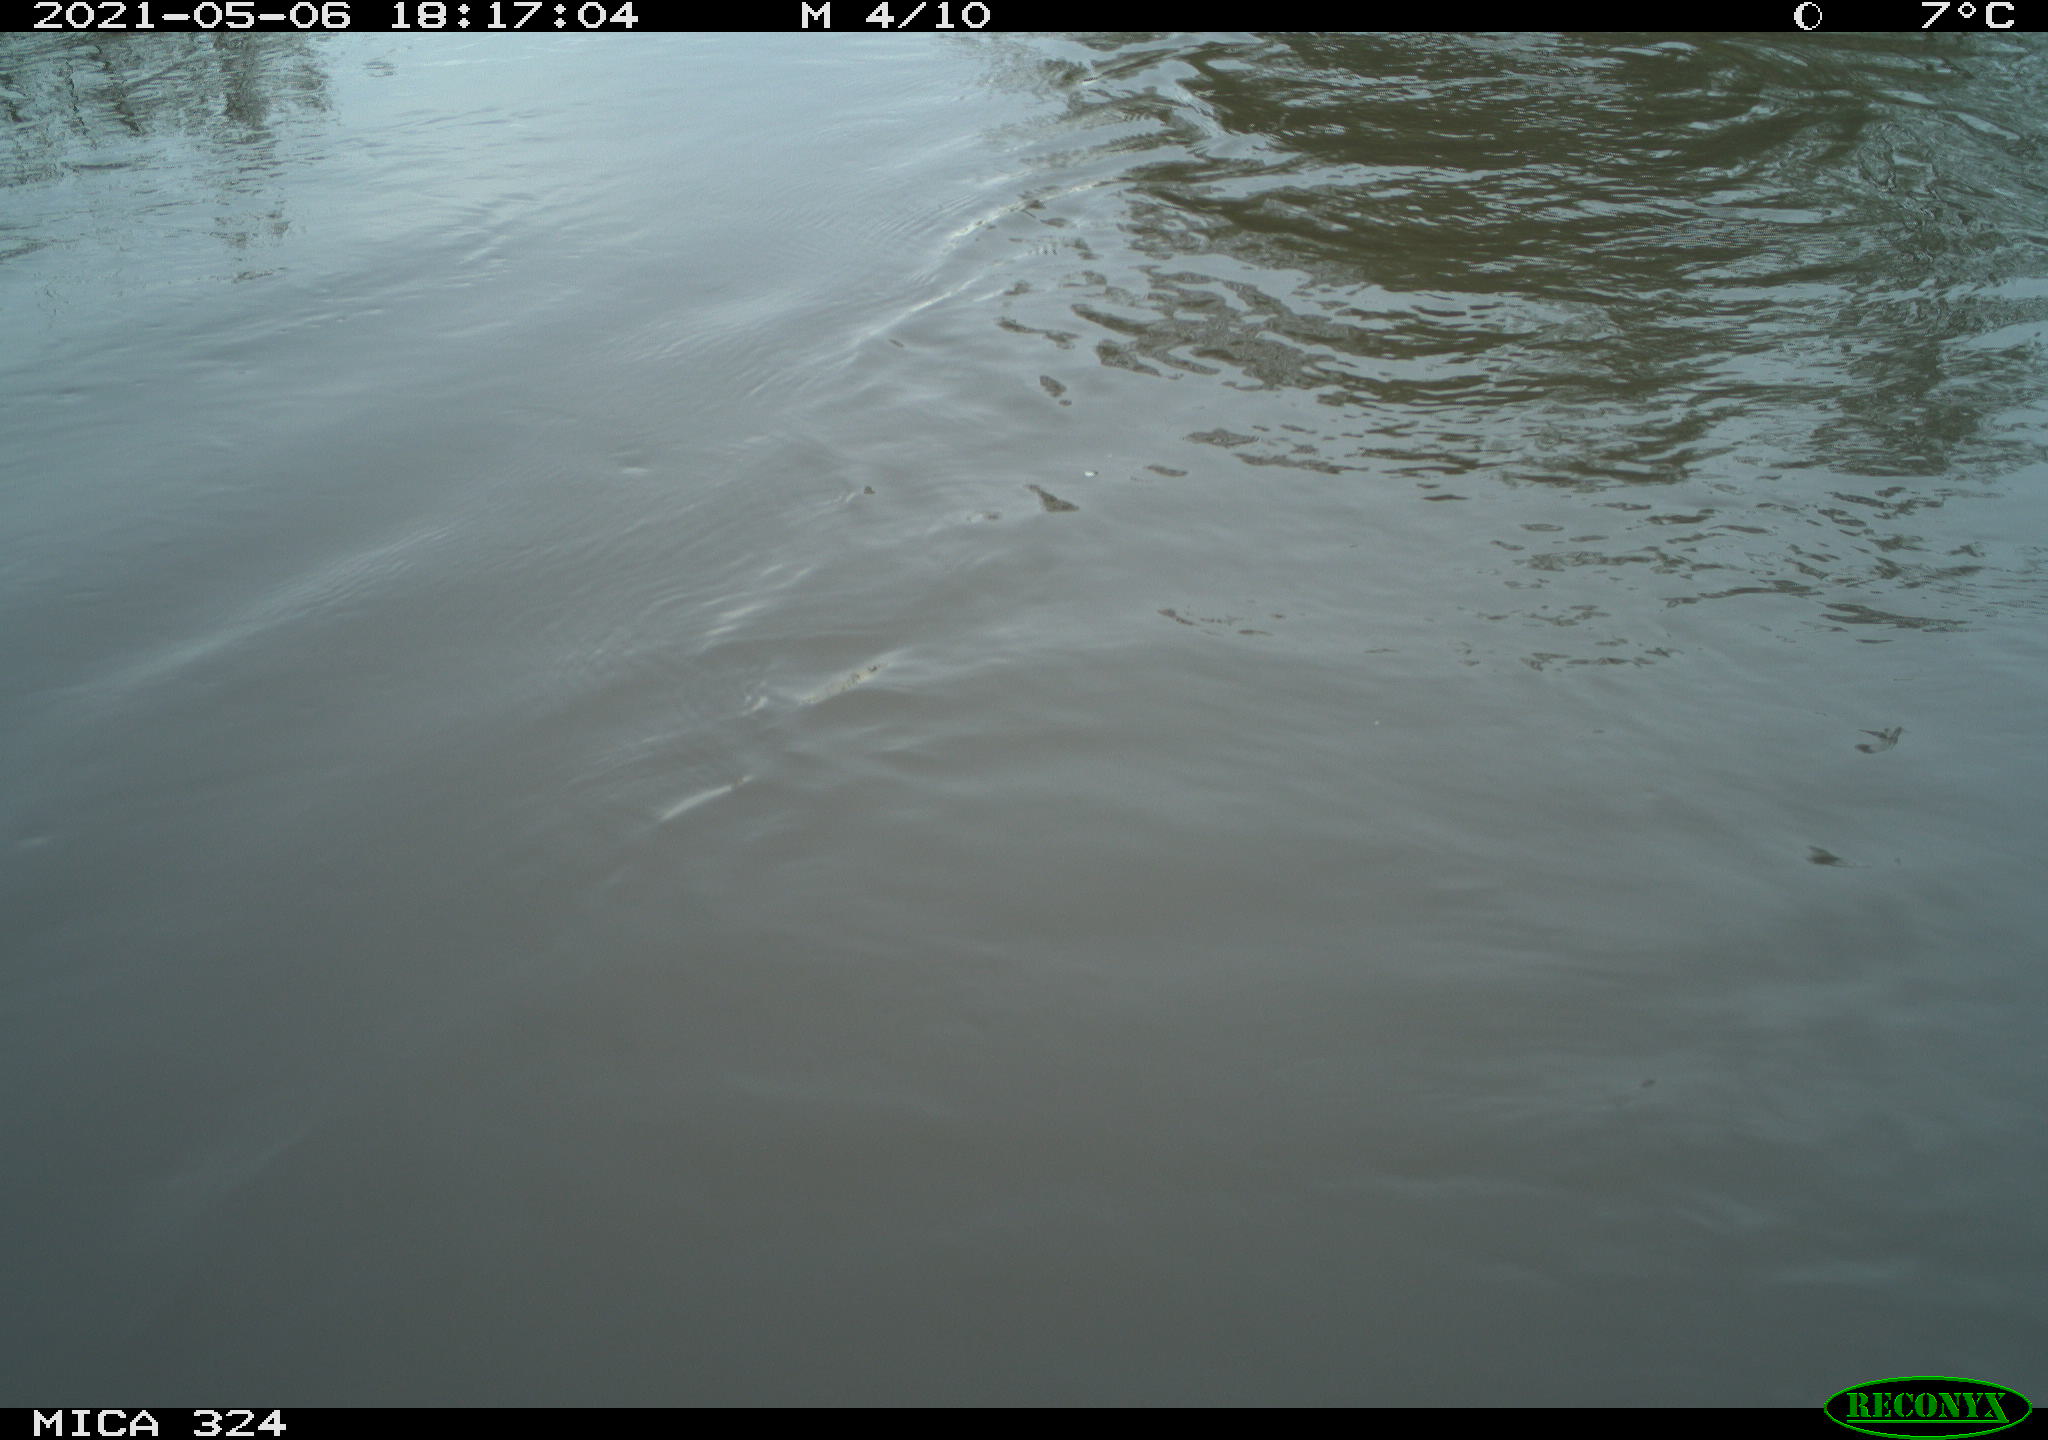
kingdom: Animalia
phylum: Chordata
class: Mammalia
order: Rodentia
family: Cricetidae
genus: Ondatra
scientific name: Ondatra zibethicus
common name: Muskrat
